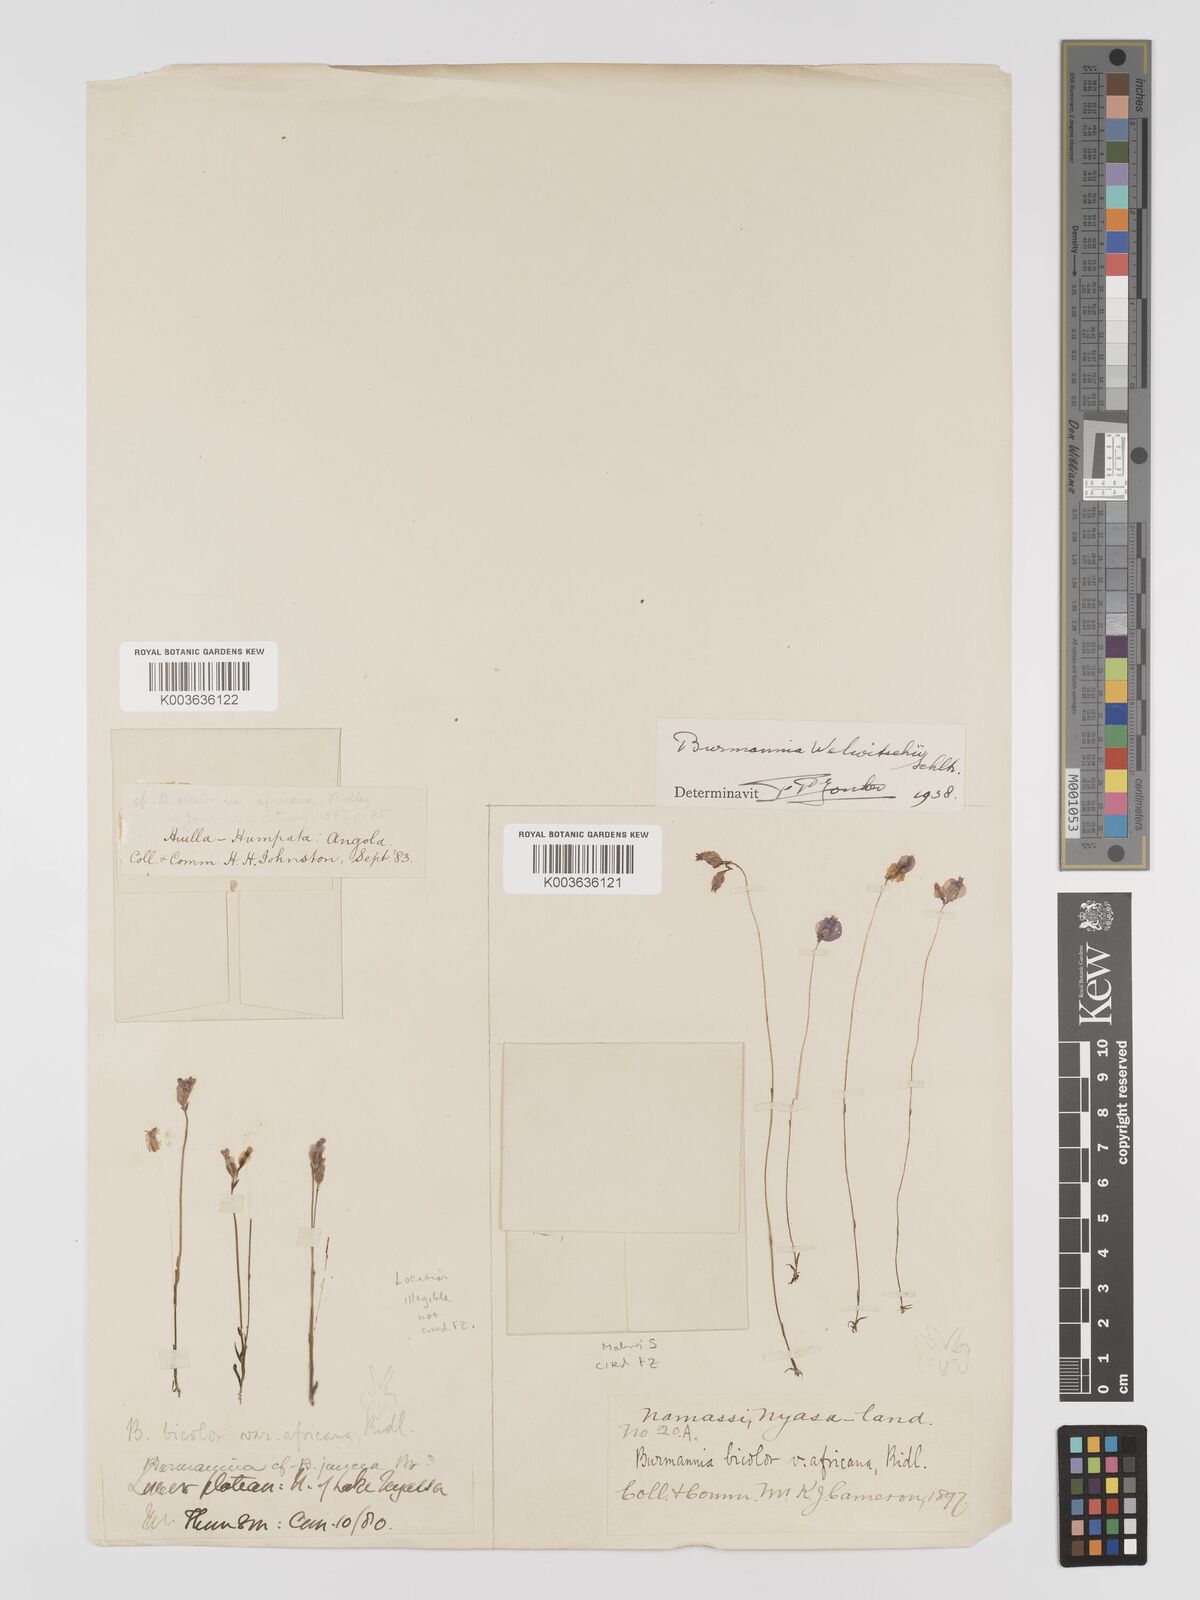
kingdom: Plantae
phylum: Tracheophyta
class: Liliopsida
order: Dioscoreales
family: Burmanniaceae
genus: Burmannia
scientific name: Burmannia madagascariensis
